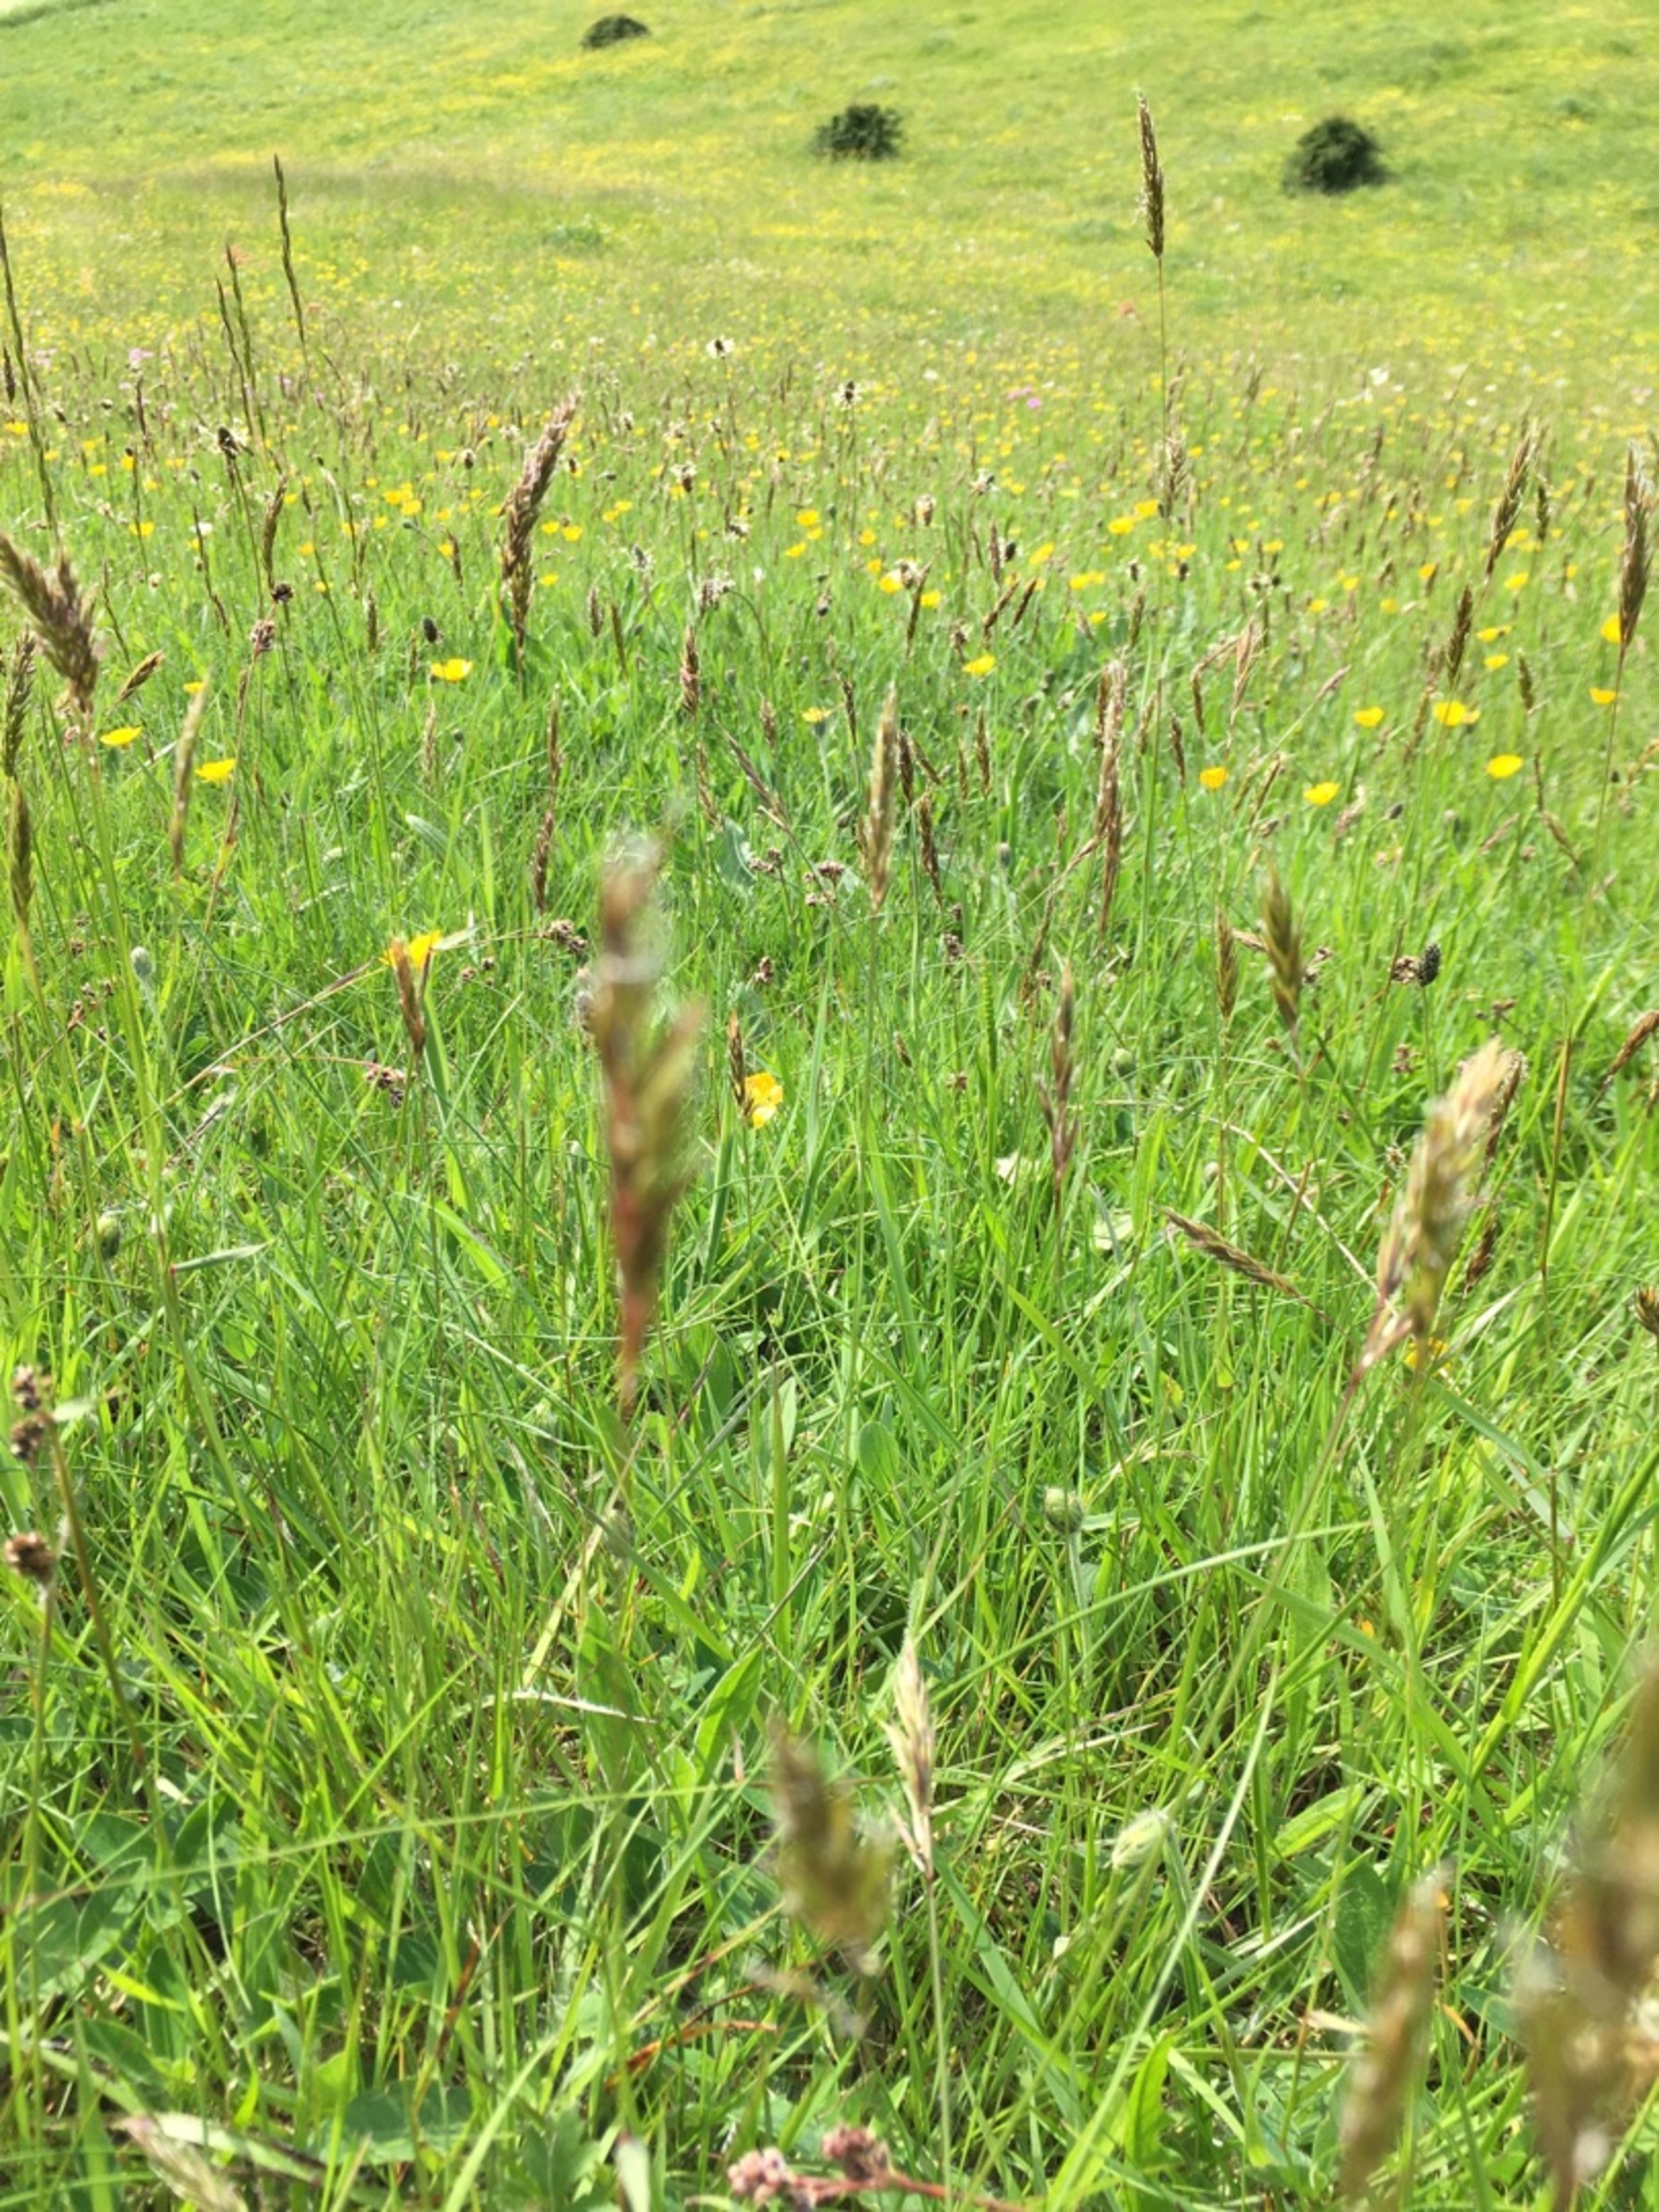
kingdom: Plantae
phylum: Tracheophyta
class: Liliopsida
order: Poales
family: Poaceae
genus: Anthoxanthum
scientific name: Anthoxanthum odoratum
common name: Vellugtende gulaks
